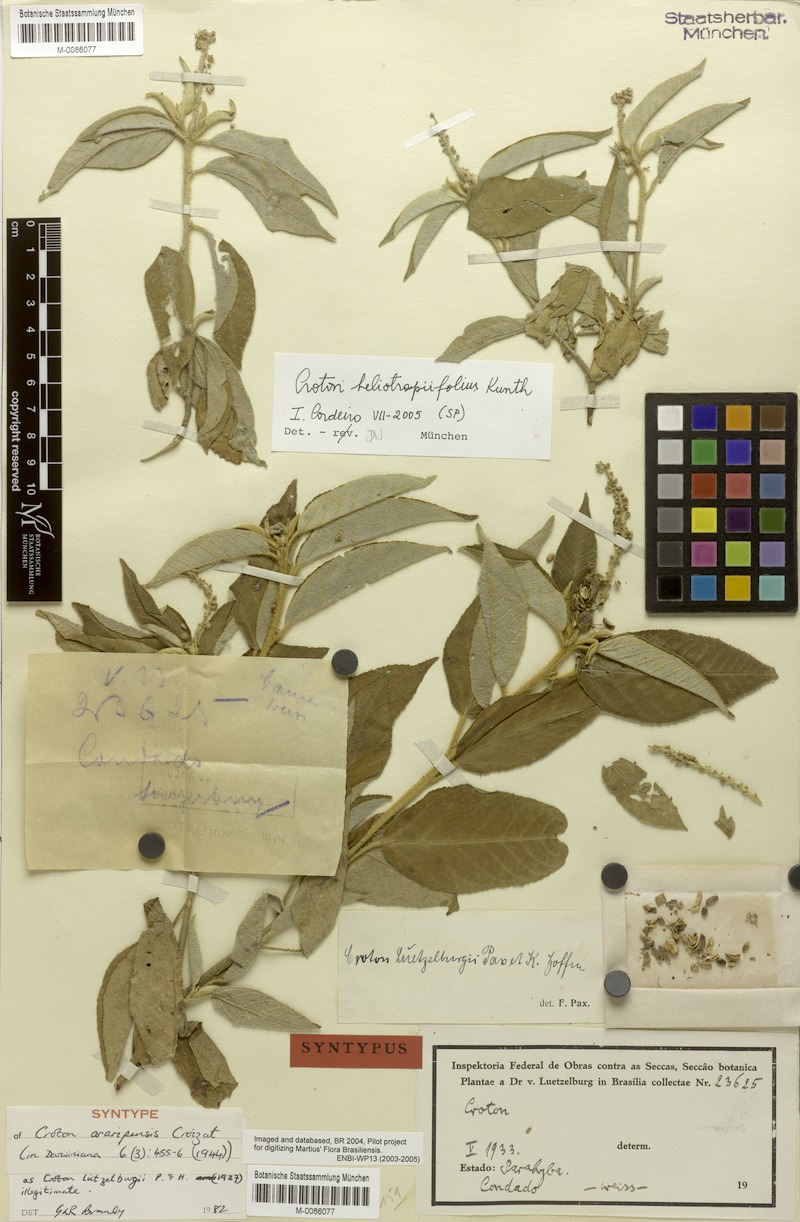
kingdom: Plantae
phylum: Tracheophyta
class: Magnoliopsida
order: Malpighiales
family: Euphorbiaceae
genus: Croton
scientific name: Croton heliotropiifolius
